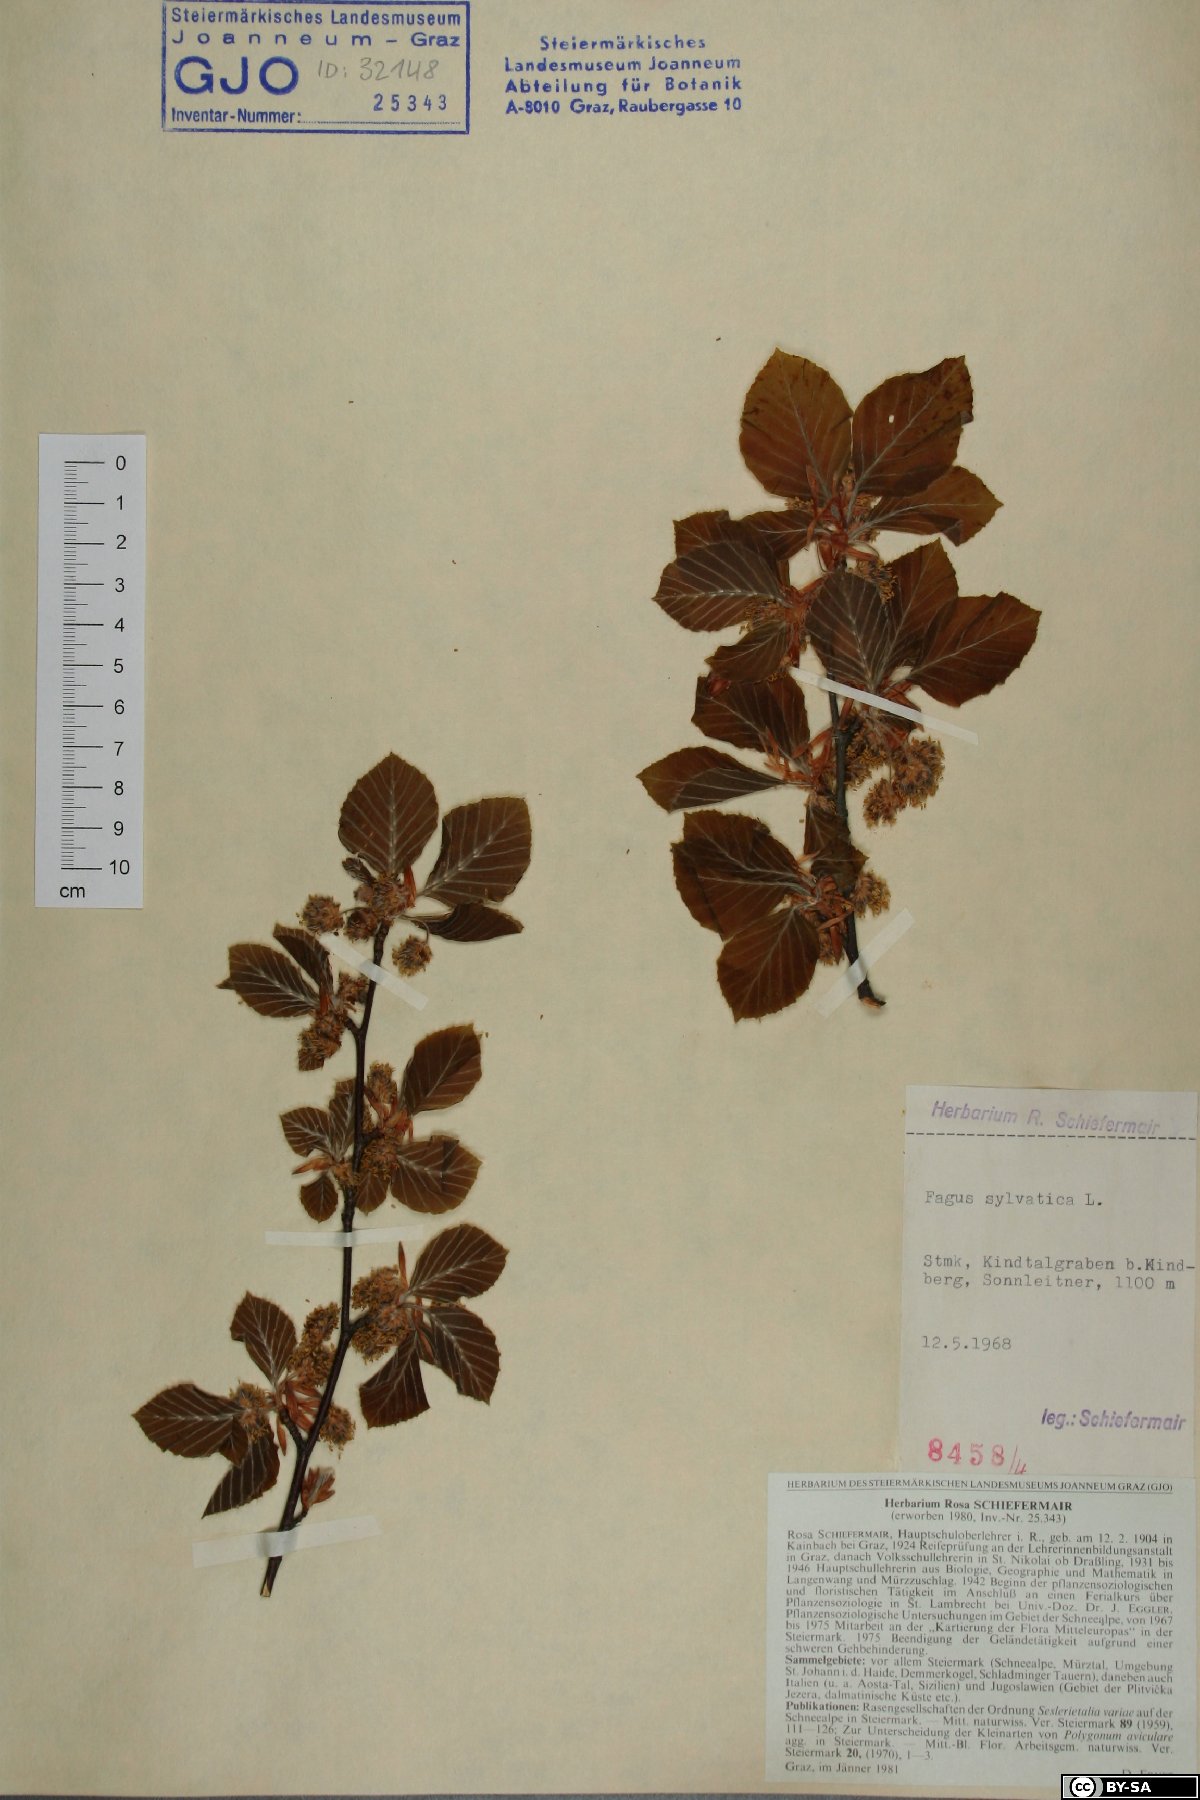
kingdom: Plantae
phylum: Tracheophyta
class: Magnoliopsida
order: Fagales
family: Fagaceae
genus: Fagus
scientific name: Fagus sylvatica
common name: Beech
